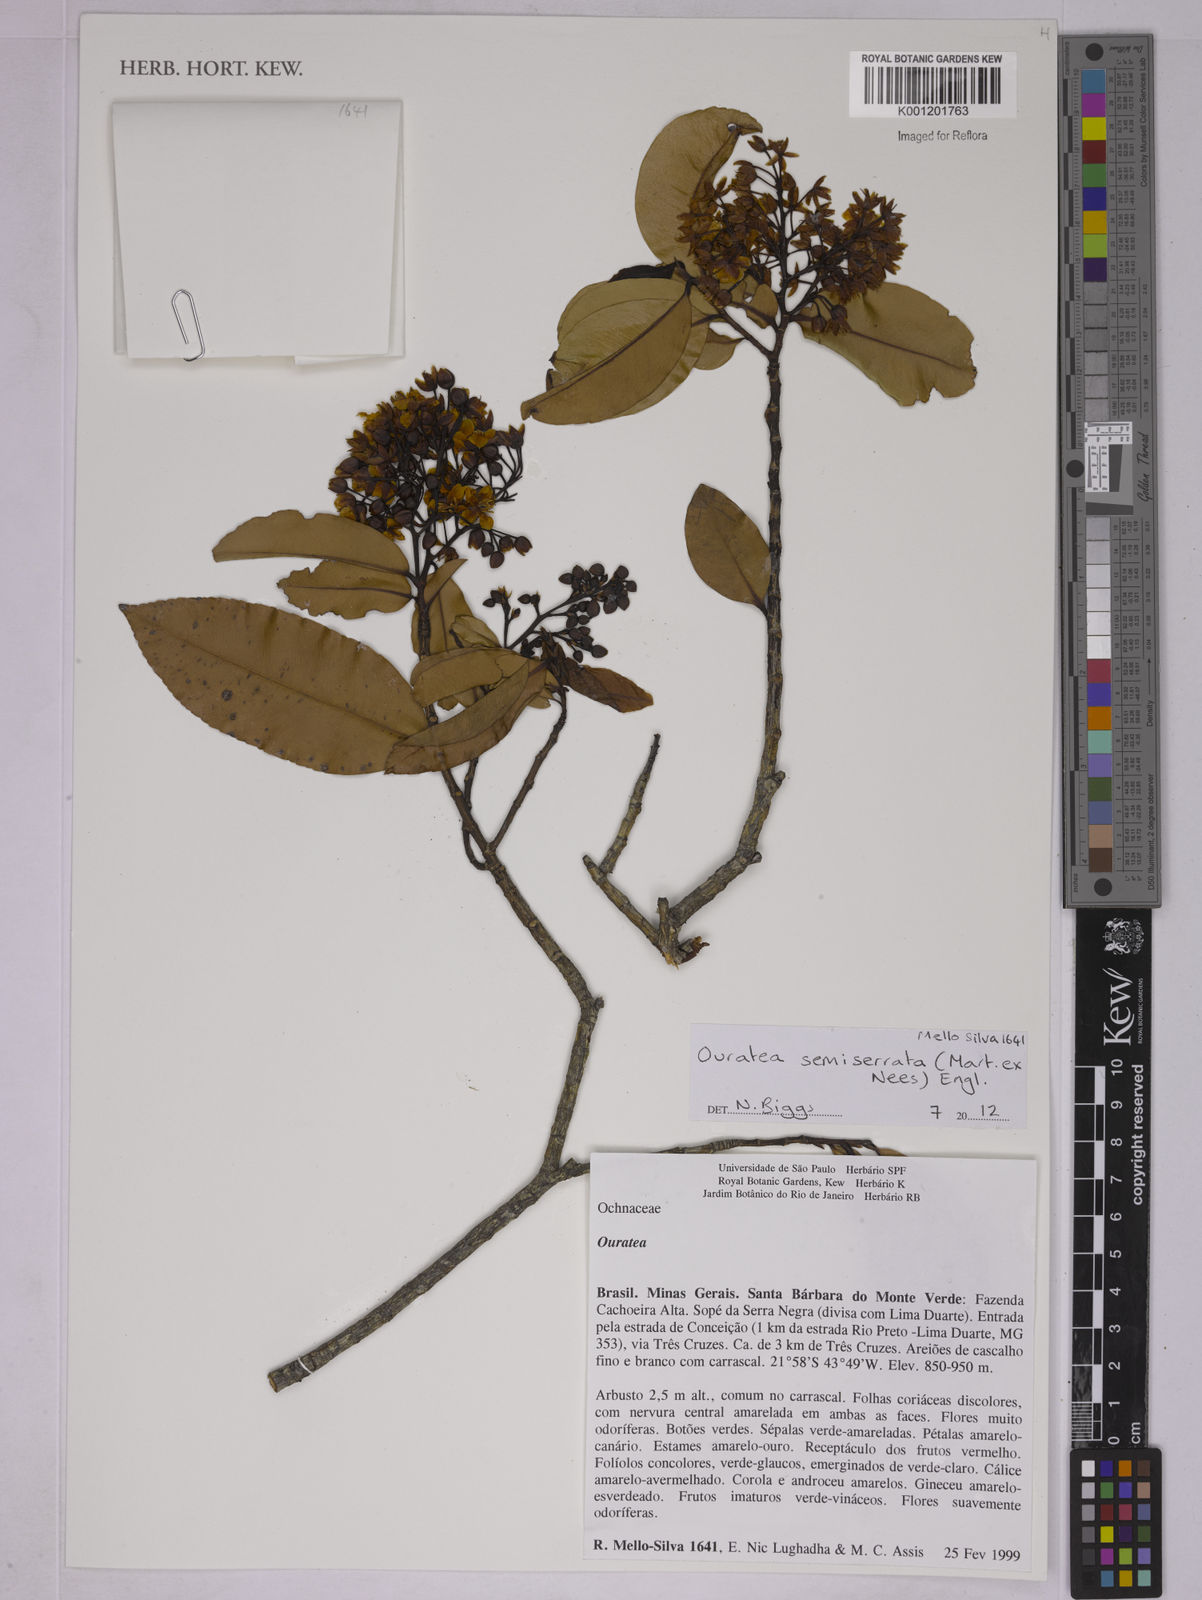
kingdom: Plantae
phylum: Tracheophyta
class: Magnoliopsida
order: Malpighiales
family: Ochnaceae
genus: Ouratea
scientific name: Ouratea semiserrata
